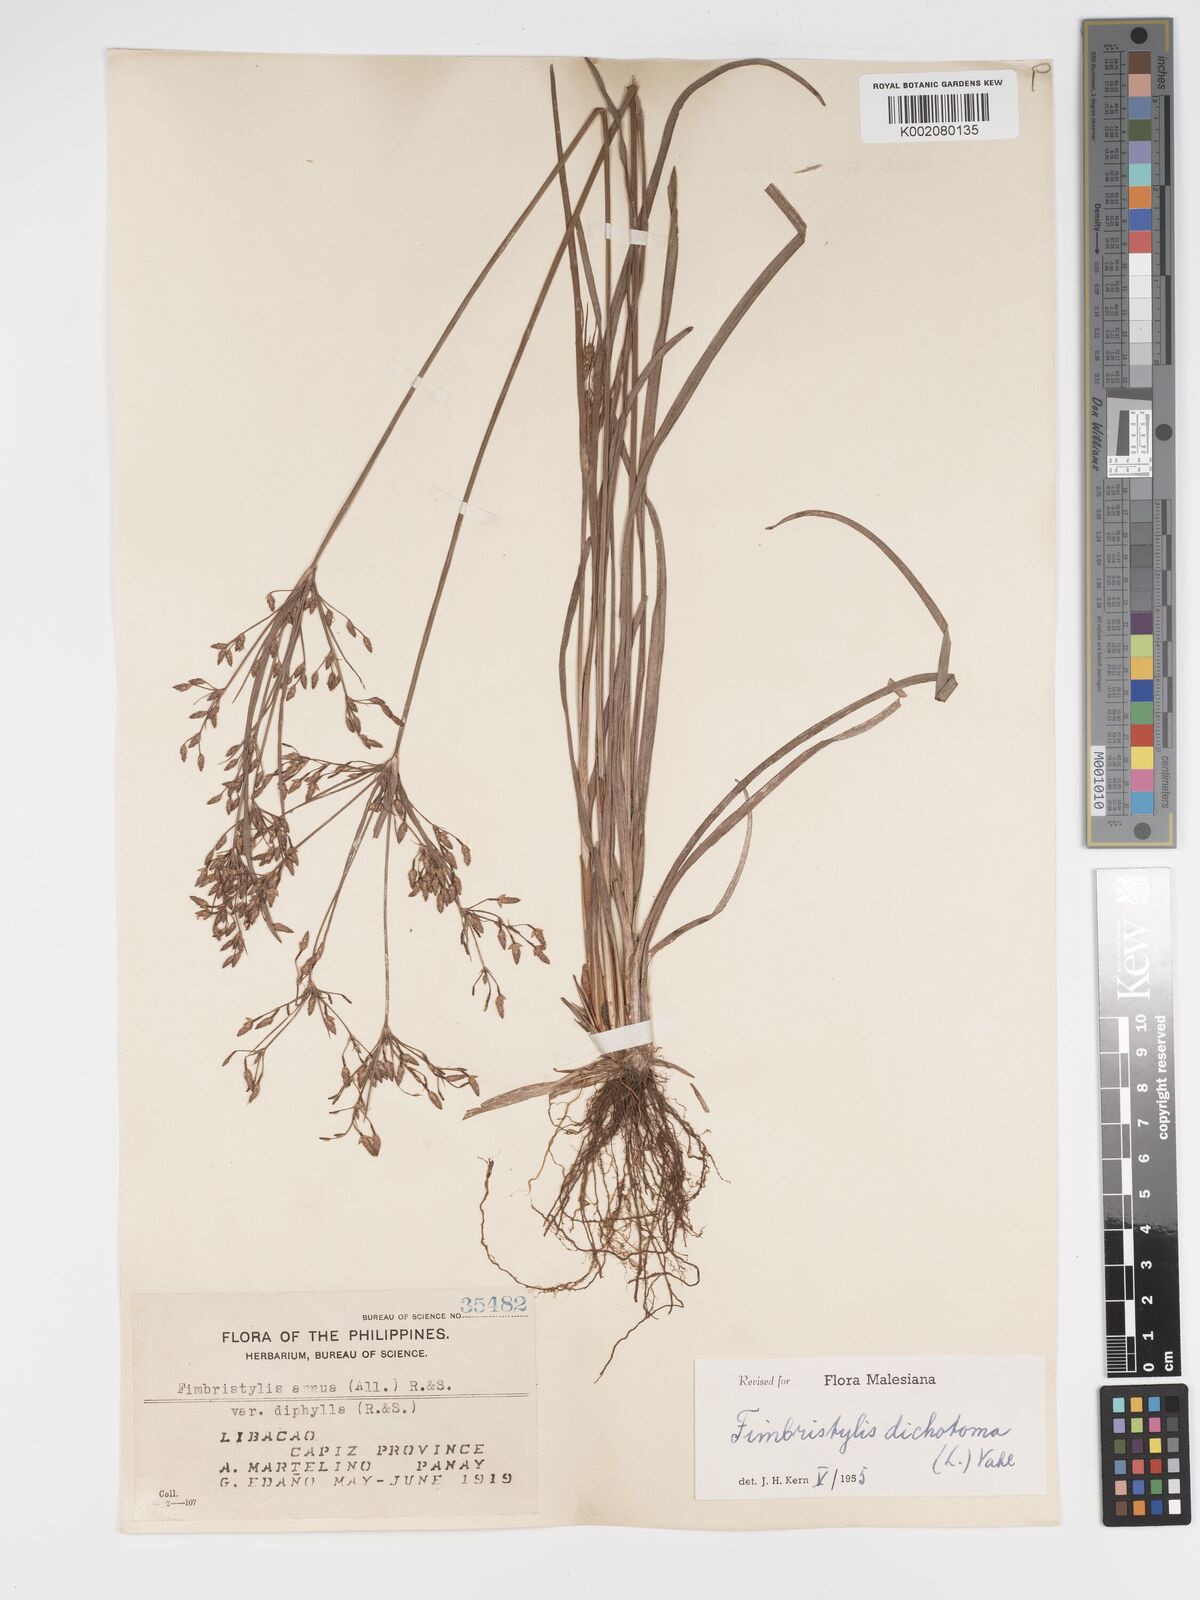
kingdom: Plantae
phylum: Tracheophyta
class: Liliopsida
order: Poales
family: Cyperaceae
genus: Fimbristylis
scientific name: Fimbristylis dichotoma
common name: Forked fimbry
